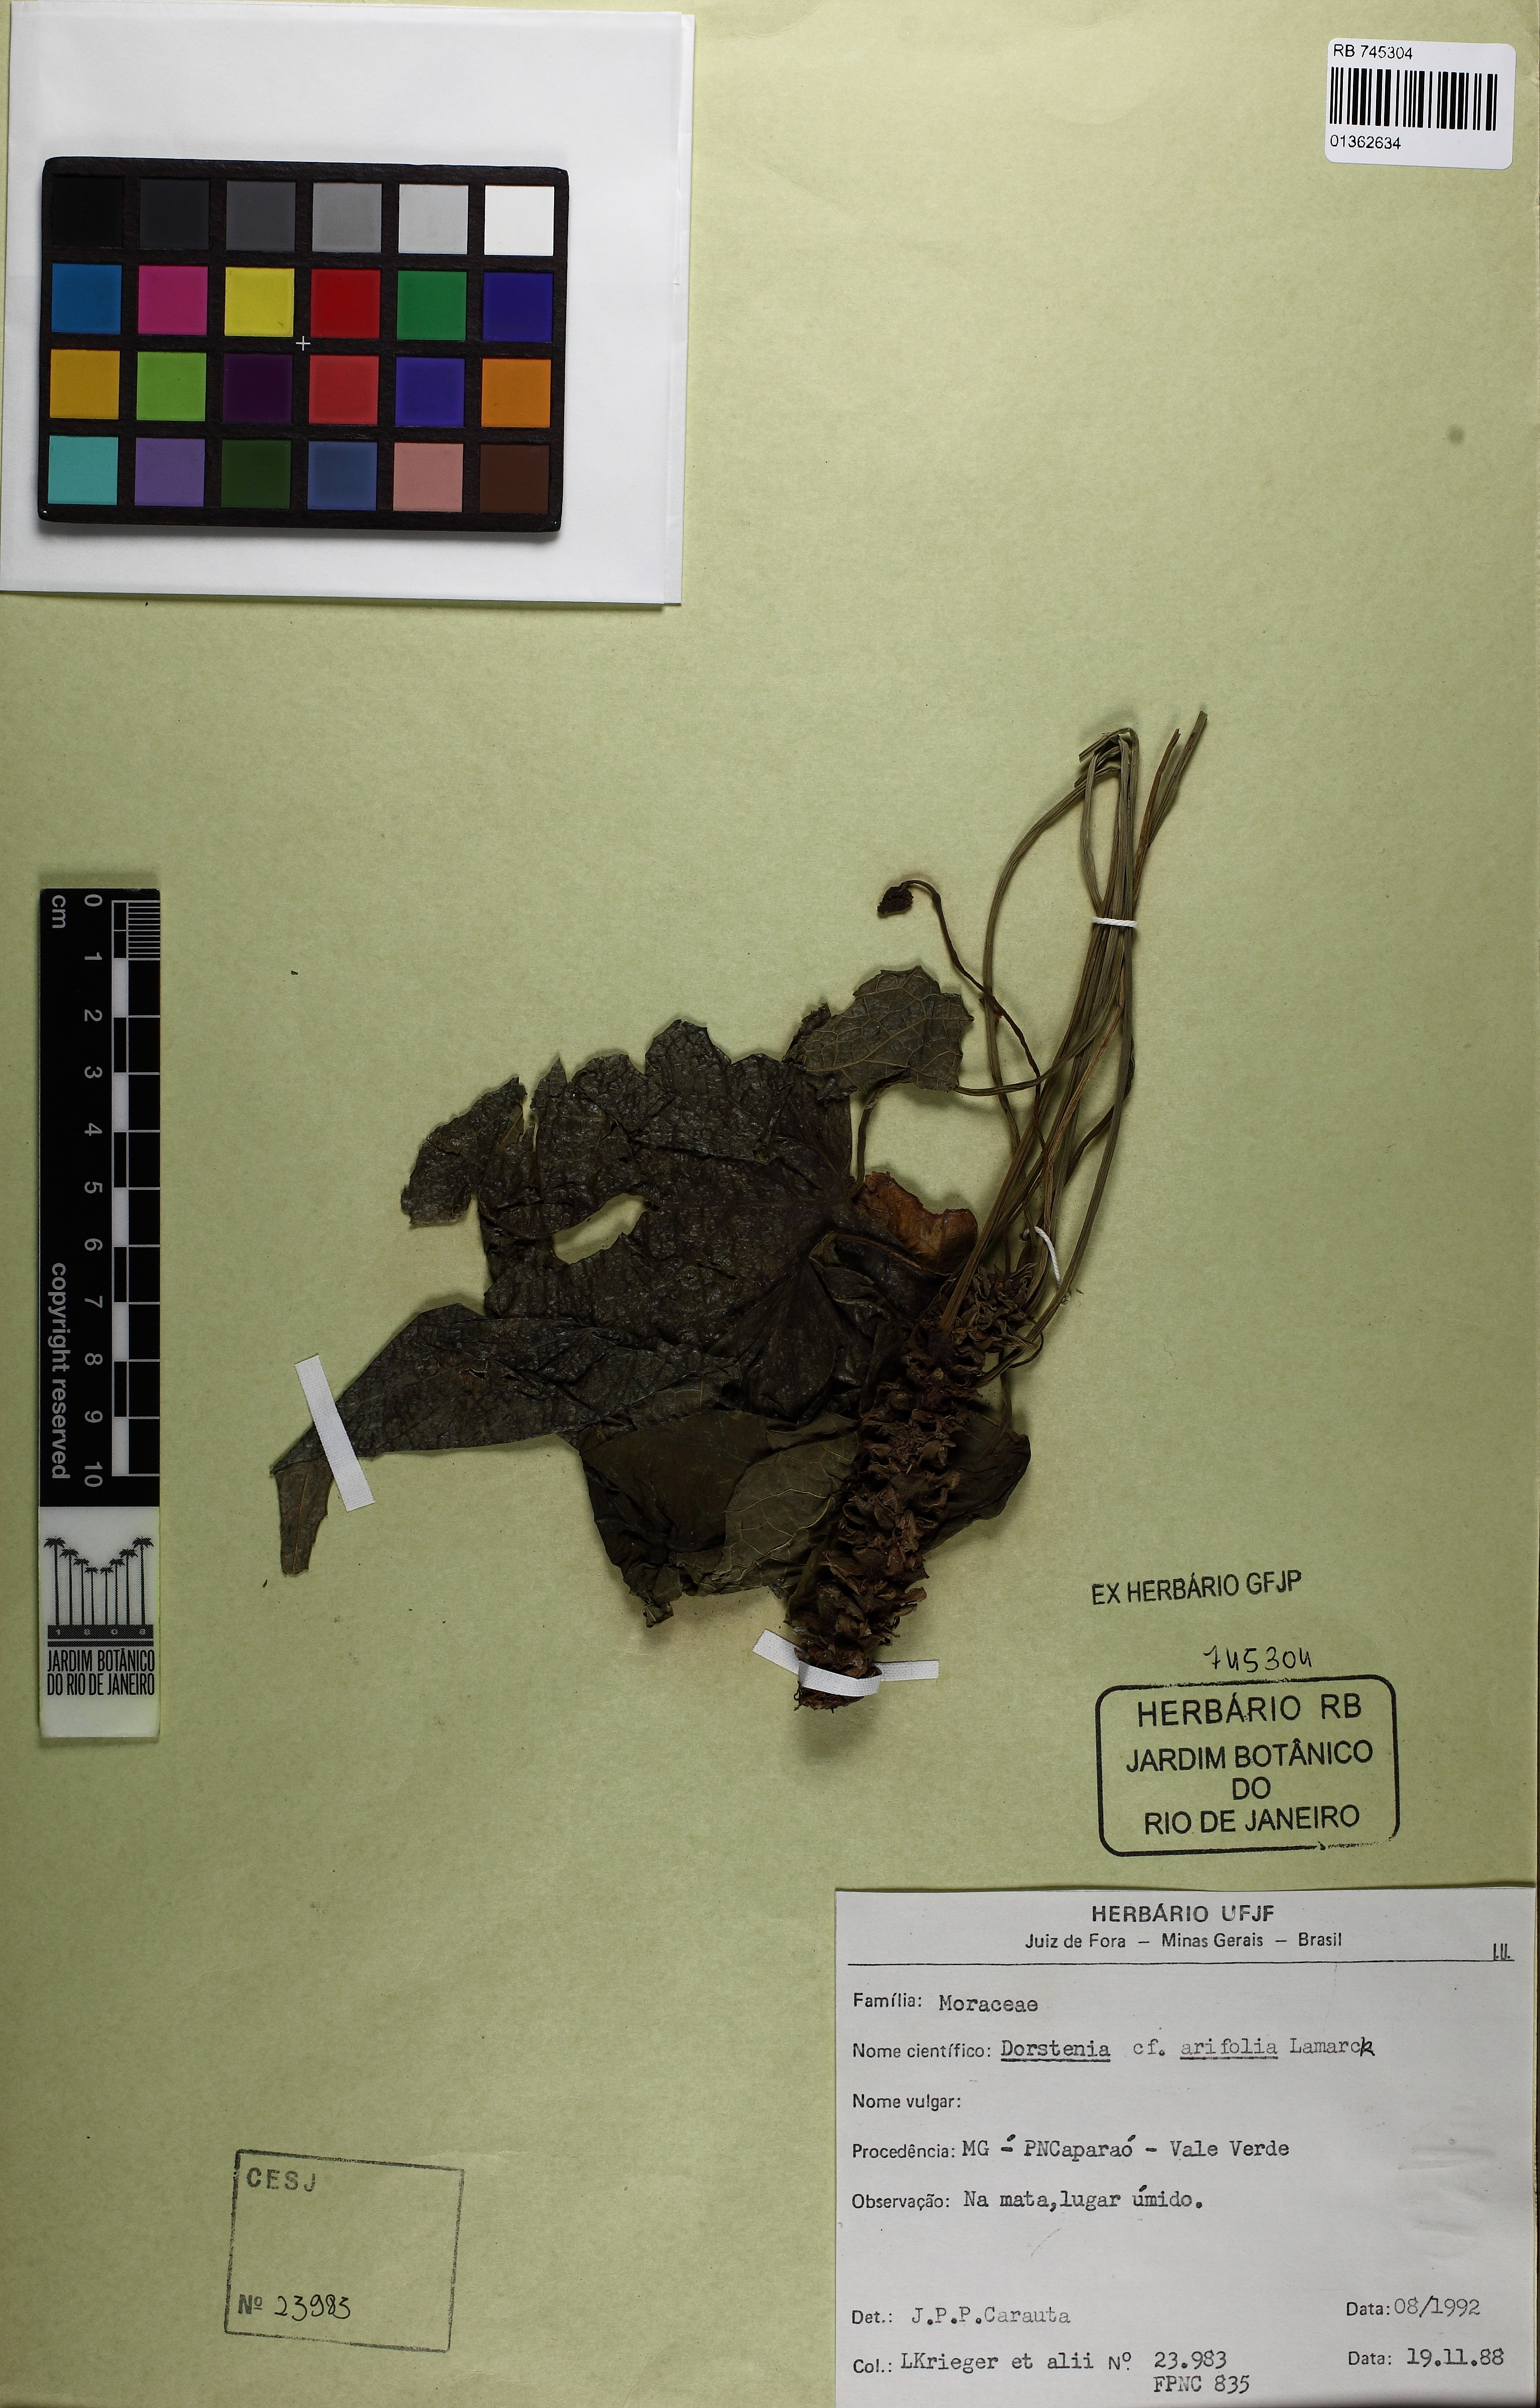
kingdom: Plantae
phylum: Tracheophyta
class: Magnoliopsida
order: Rosales
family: Moraceae
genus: Dorstenia
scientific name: Dorstenia arifolia
